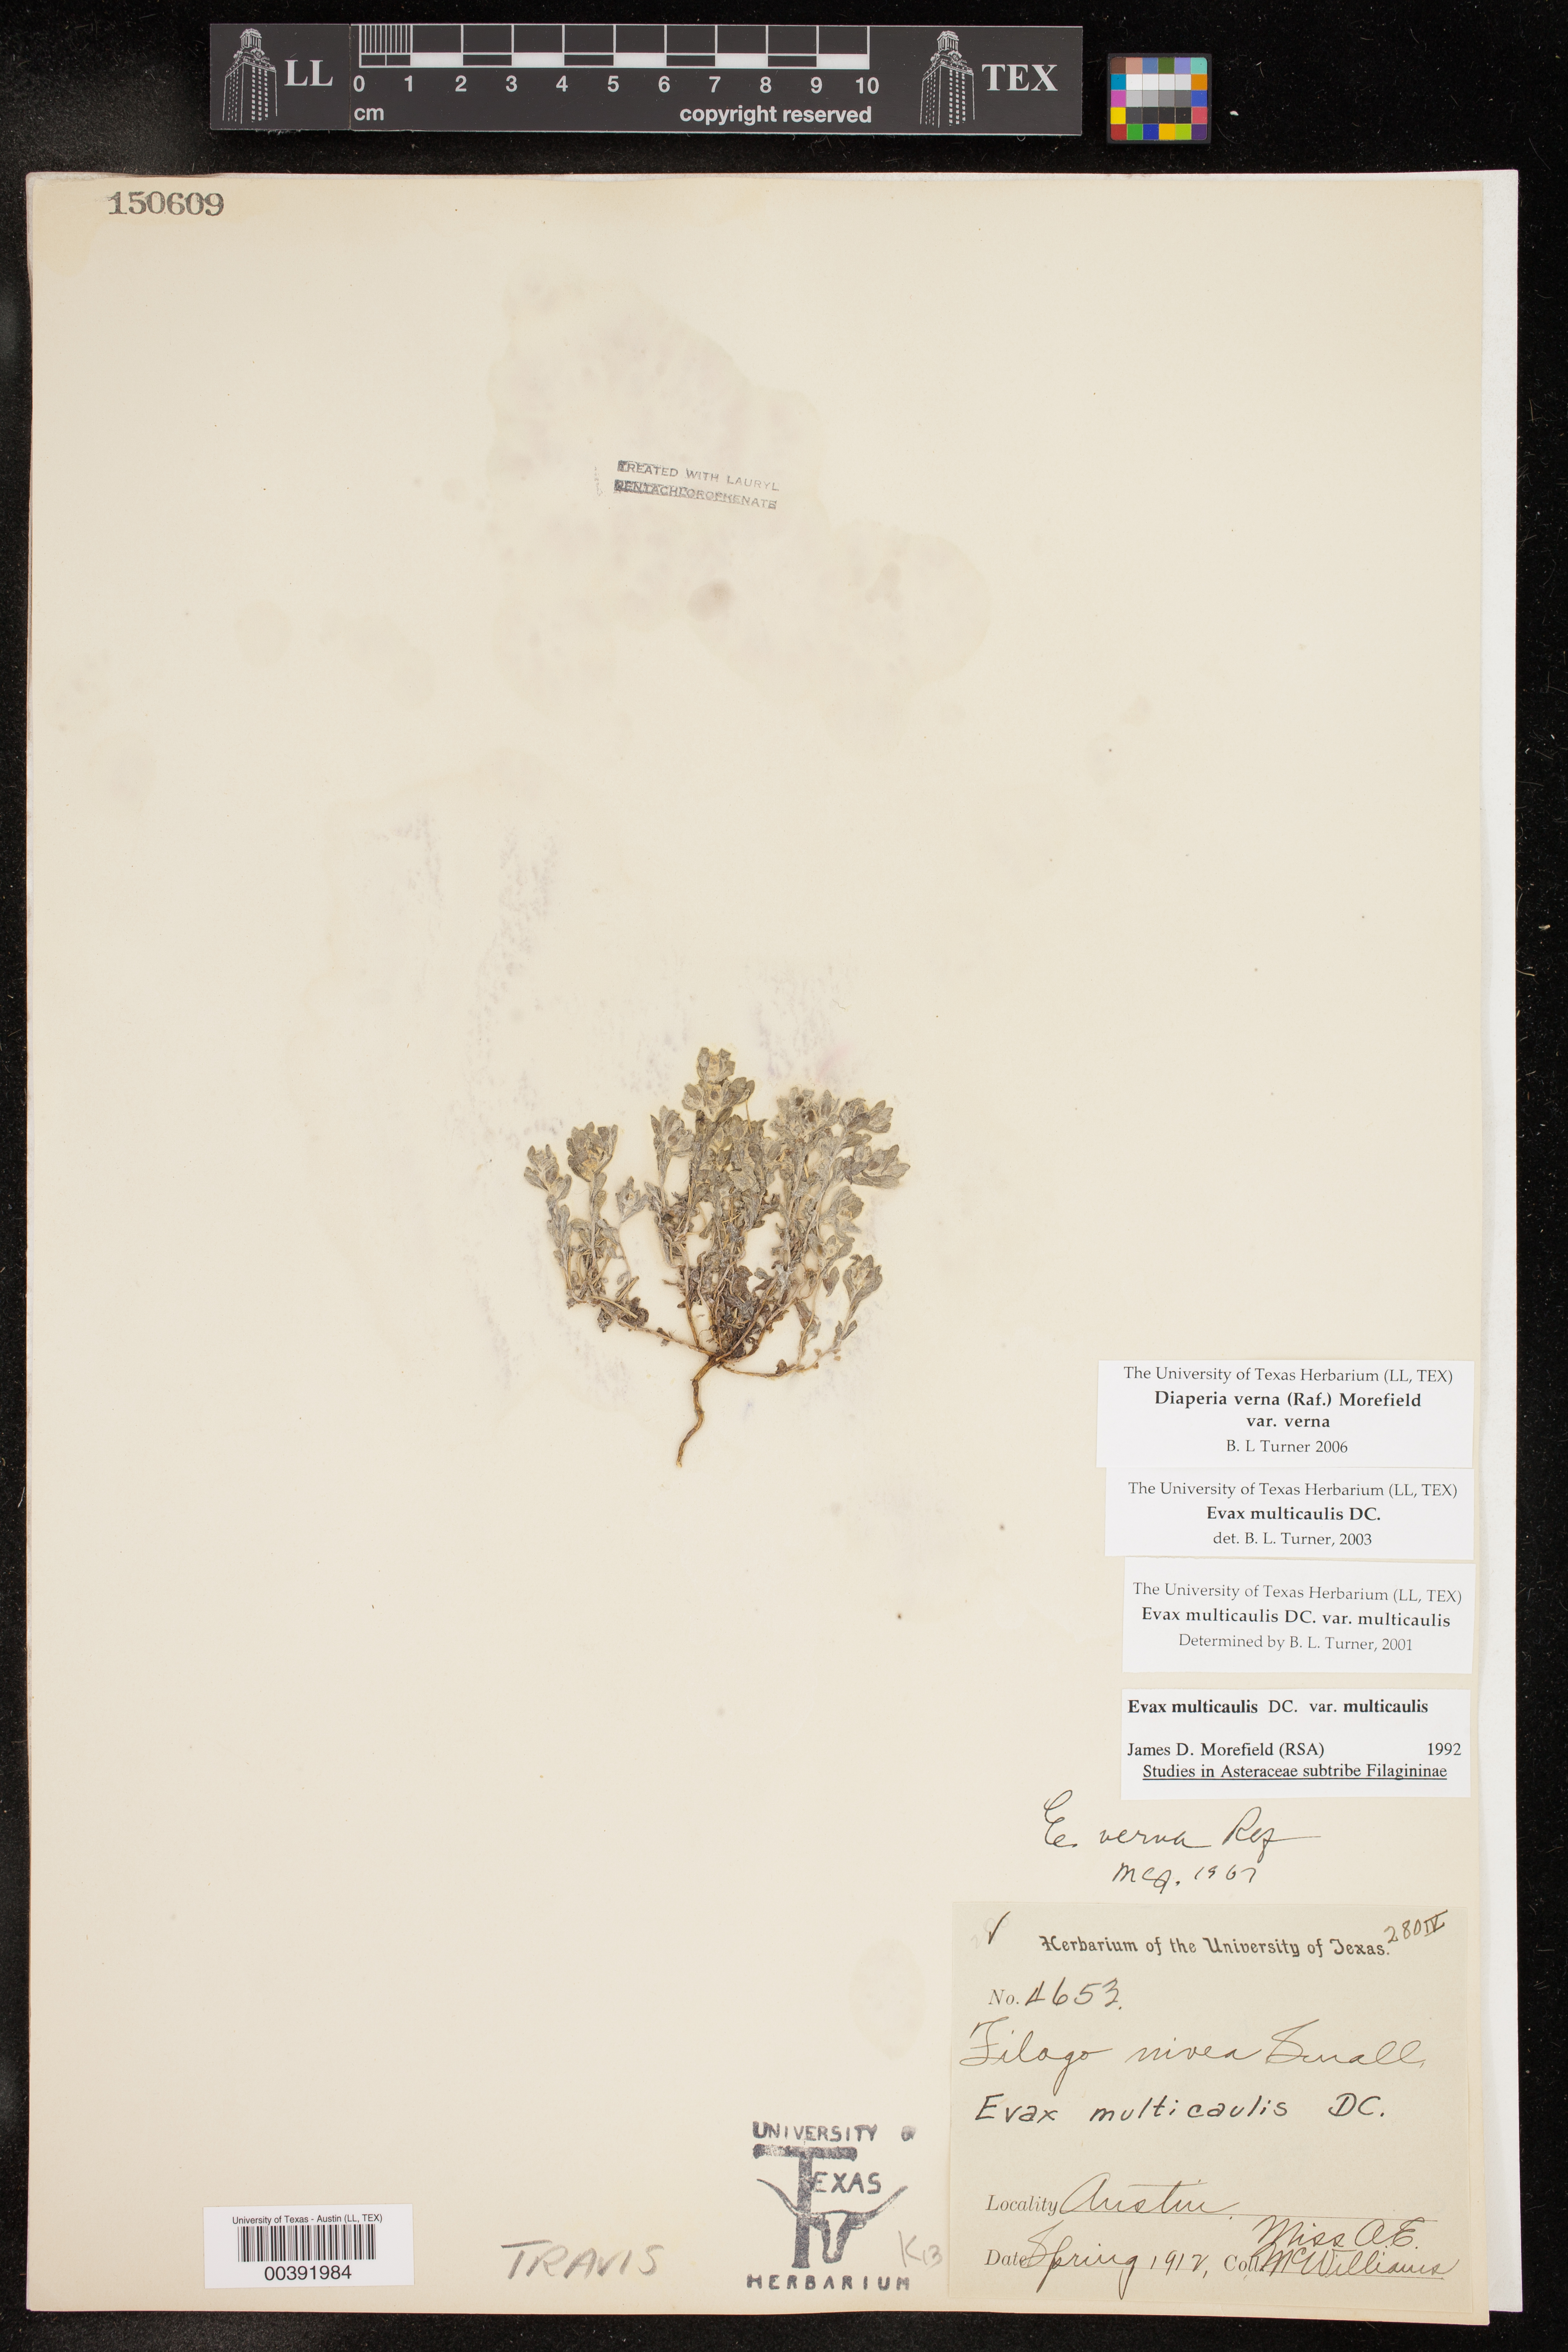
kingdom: Plantae
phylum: Tracheophyta
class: Magnoliopsida
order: Asterales
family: Asteraceae
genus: Diaperia
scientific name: Diaperia verna
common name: Many-stem rabbit-tobacco
